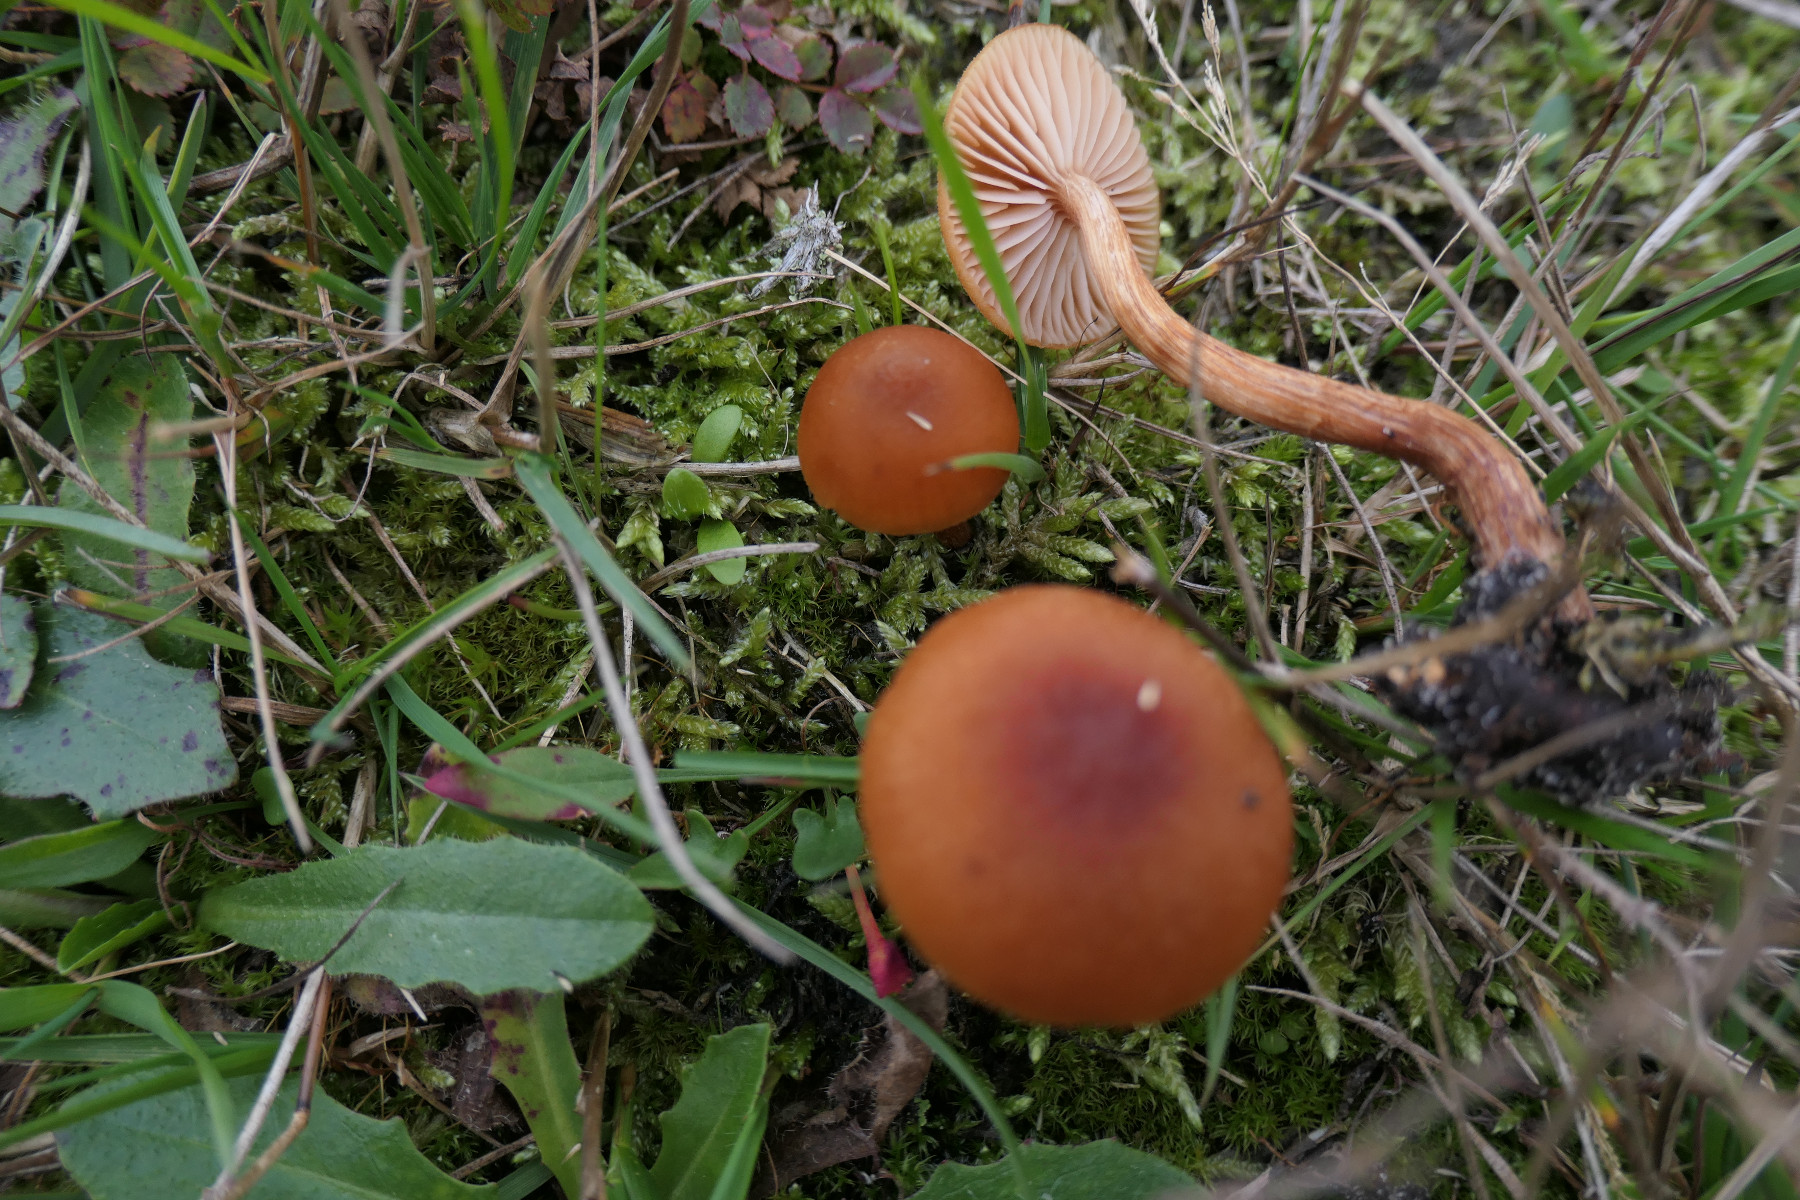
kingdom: Fungi
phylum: Basidiomycota
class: Agaricomycetes
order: Agaricales
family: Hydnangiaceae
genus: Laccaria
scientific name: Laccaria laccata
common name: rød ametysthat
